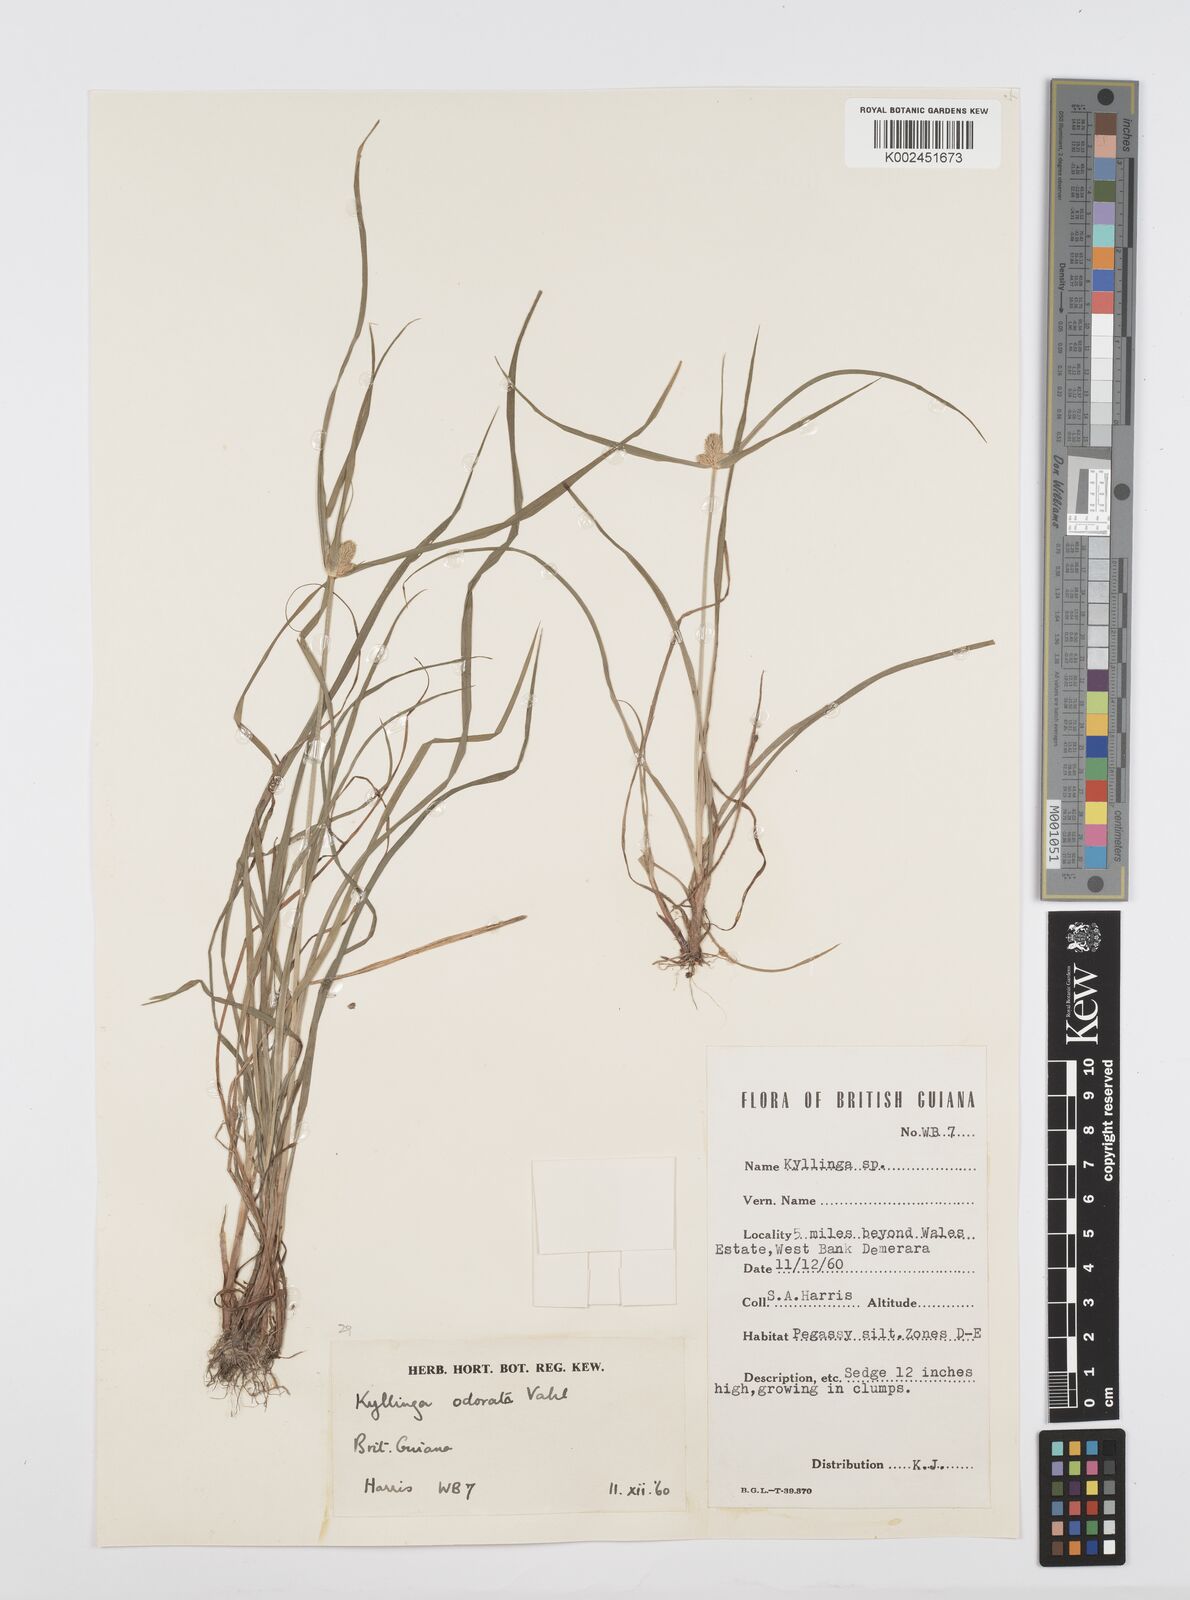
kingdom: Plantae
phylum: Tracheophyta
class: Liliopsida
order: Poales
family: Cyperaceae
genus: Cyperus
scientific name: Cyperus
